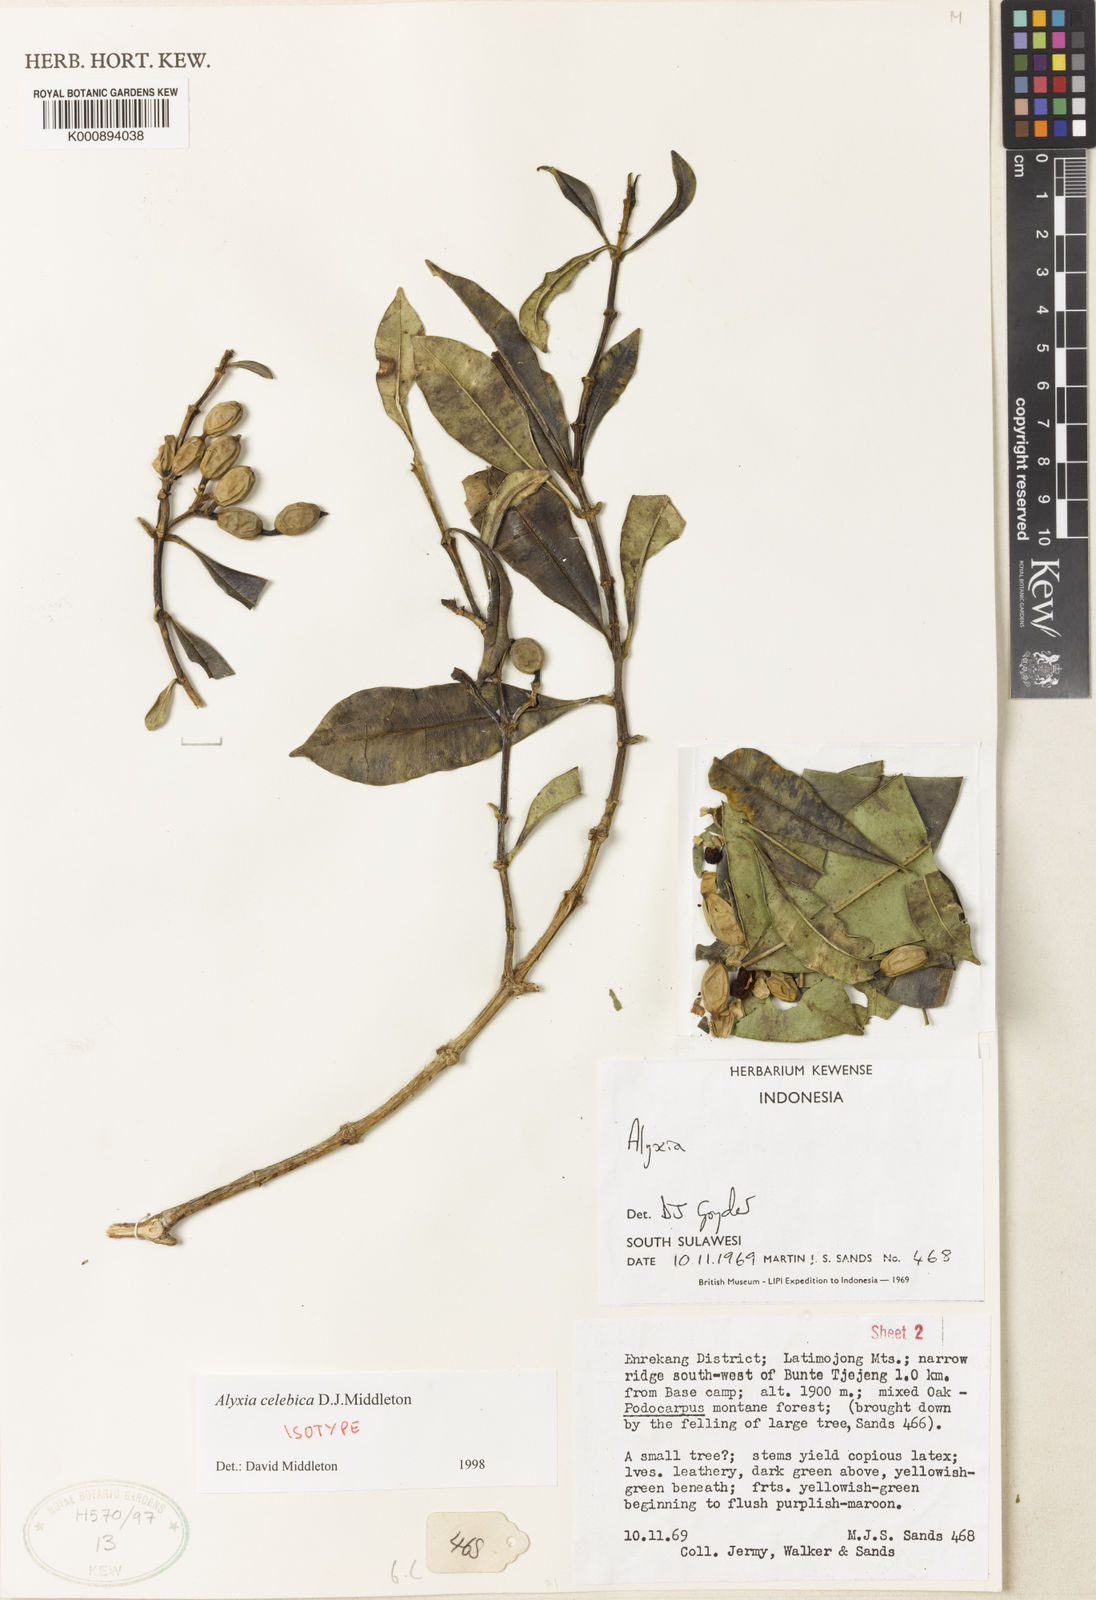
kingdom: Plantae
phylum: Tracheophyta
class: Magnoliopsida
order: Gentianales
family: Apocynaceae
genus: Alyxia
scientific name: Alyxia celebica
